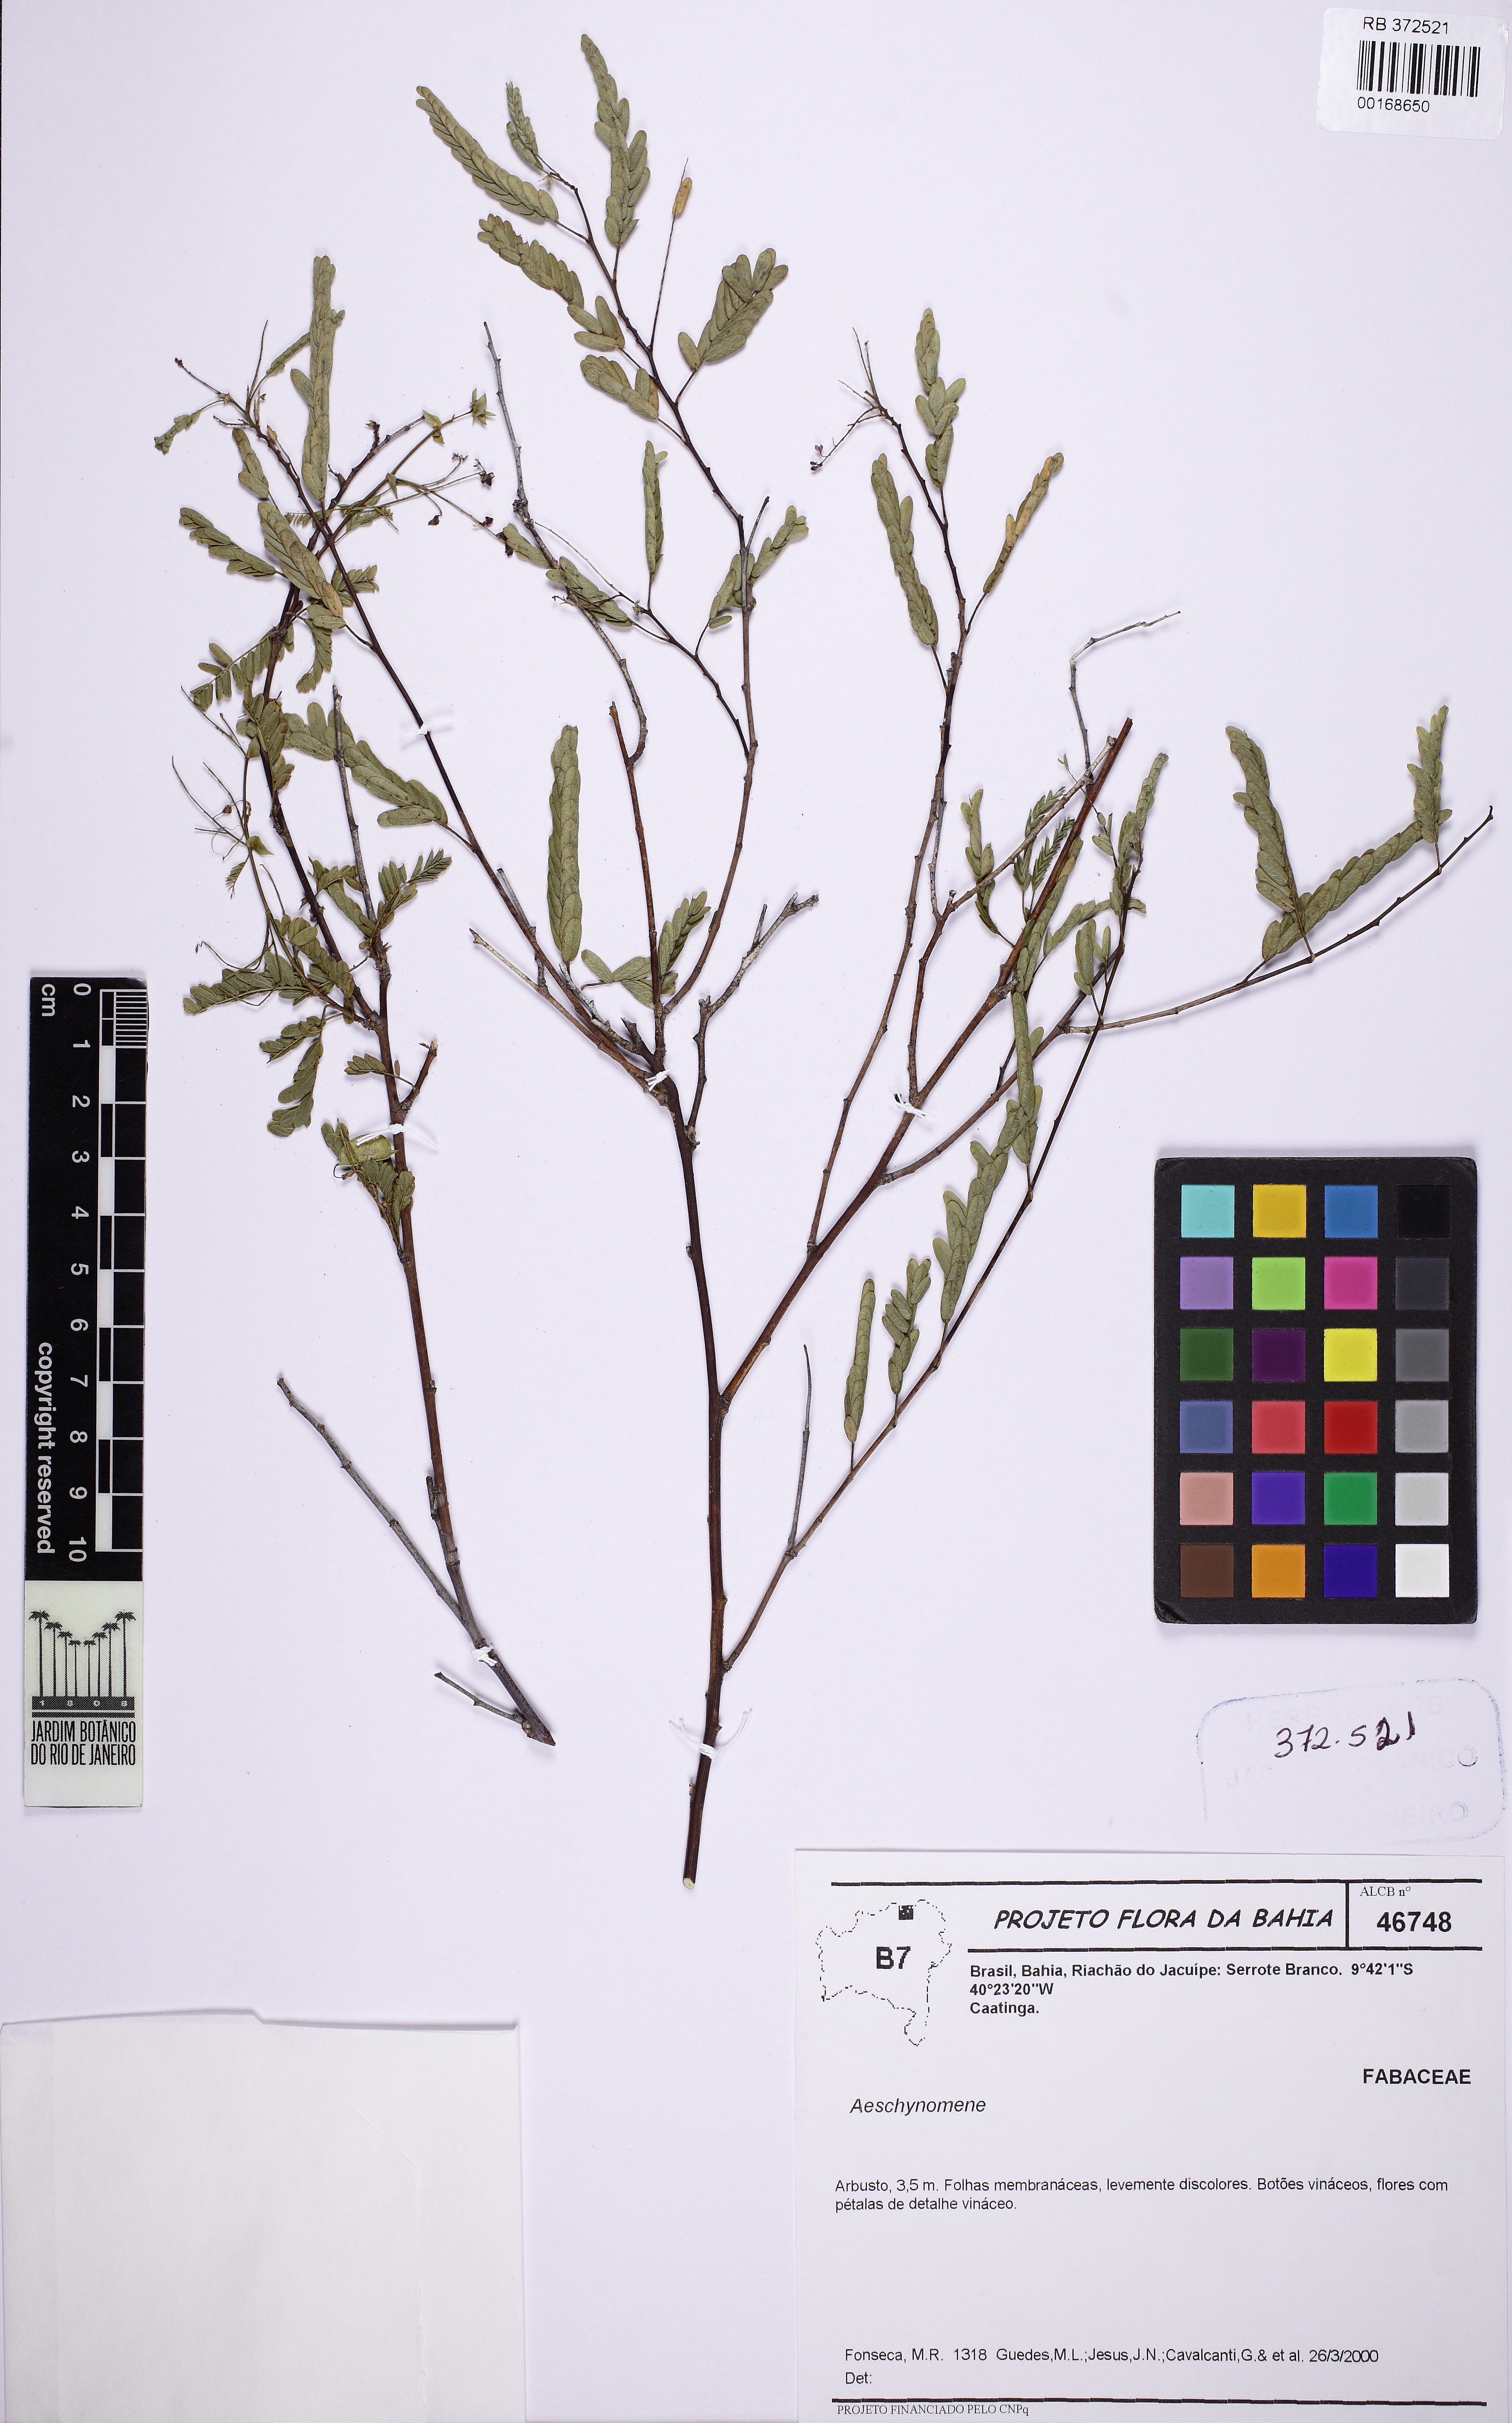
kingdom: Plantae
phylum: Tracheophyta
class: Magnoliopsida
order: Fabales
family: Fabaceae
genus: Aeschynomene
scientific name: Aeschynomene
